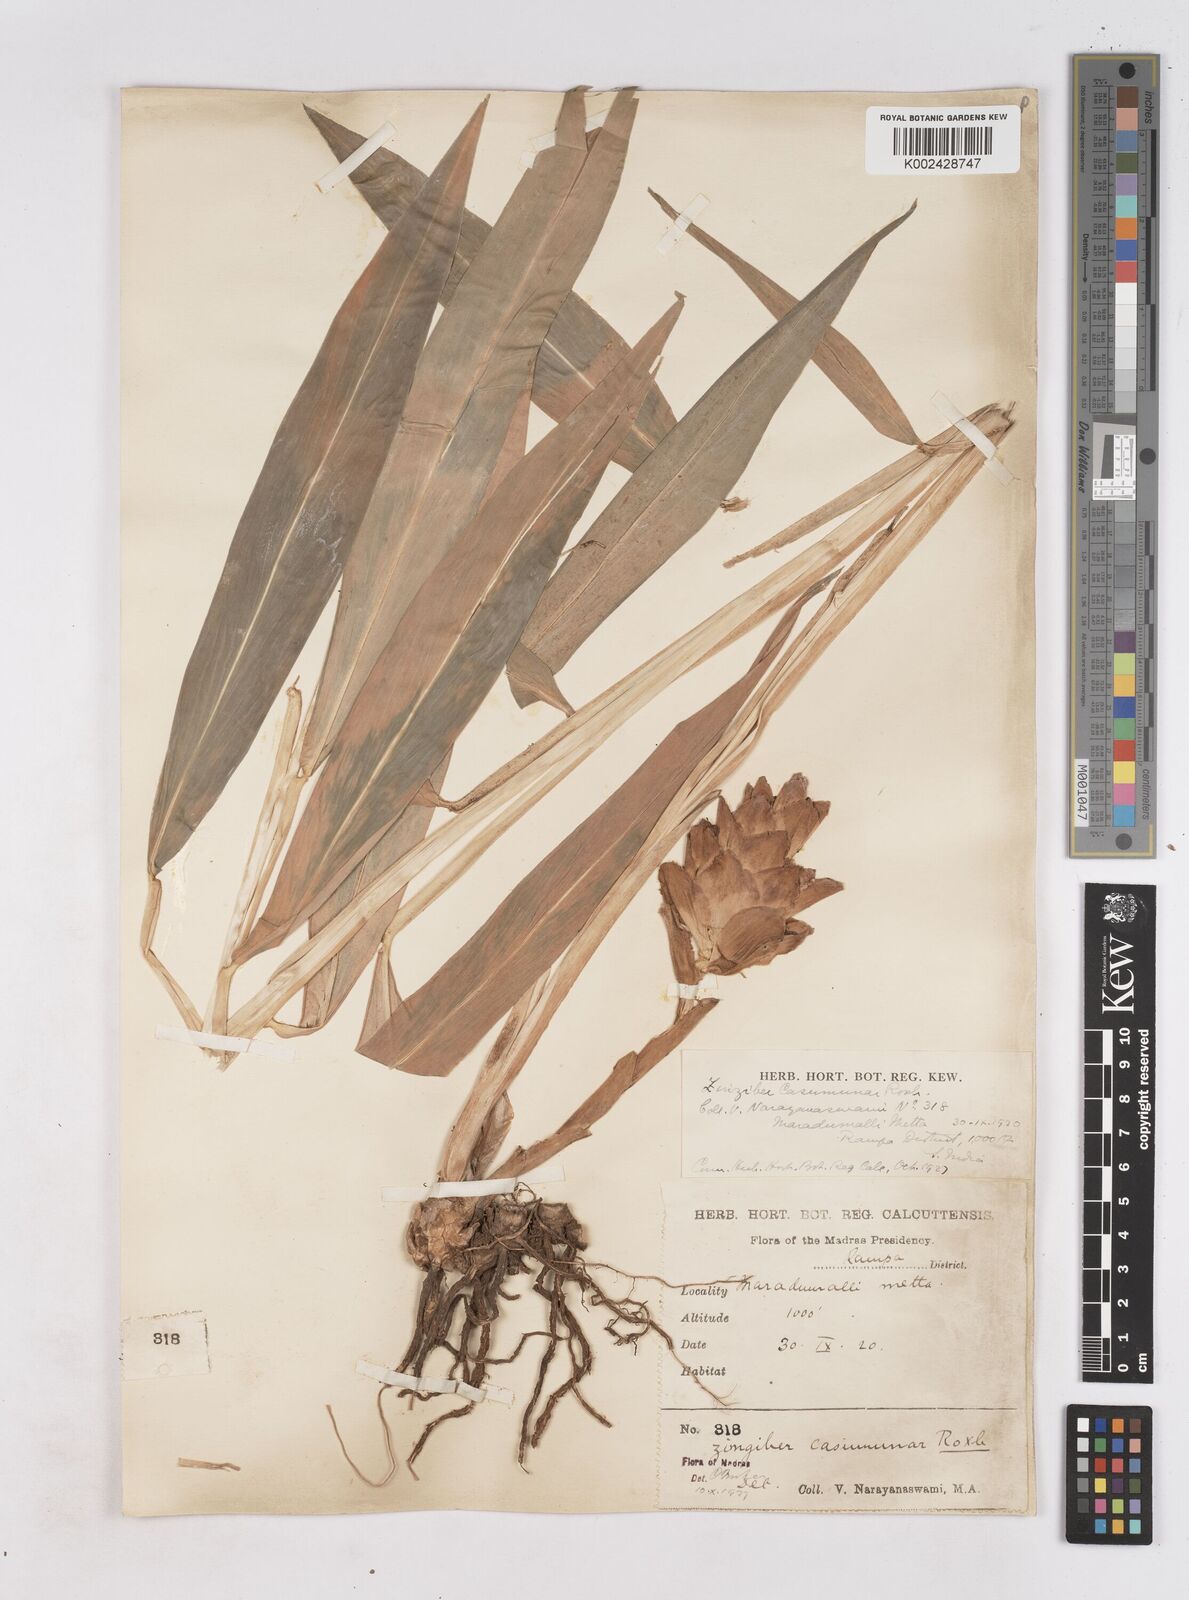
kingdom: Plantae
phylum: Tracheophyta
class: Liliopsida
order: Zingiberales
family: Zingiberaceae
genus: Zingiber
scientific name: Zingiber montanum
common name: Bengal ginger
